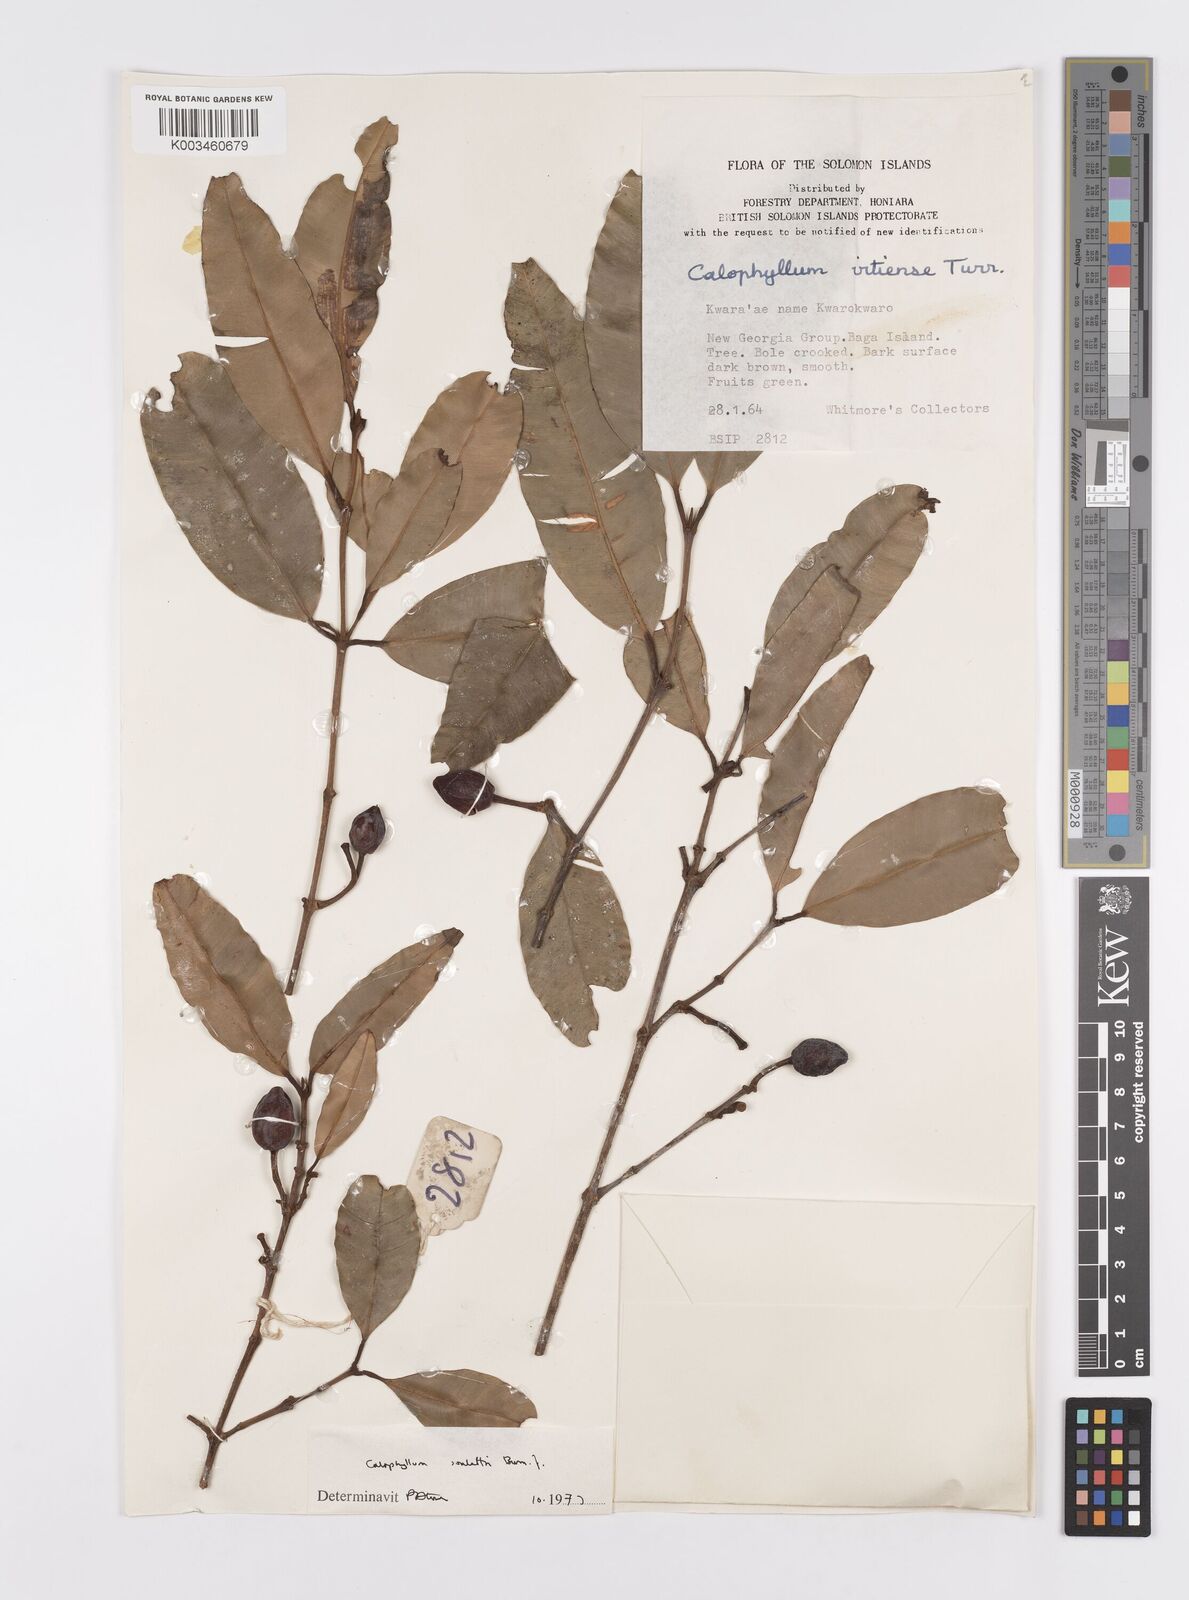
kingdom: Plantae
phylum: Tracheophyta
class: Magnoliopsida
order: Malpighiales
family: Calophyllaceae
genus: Calophyllum
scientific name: Calophyllum soulattri
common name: Bitangoor boonot
